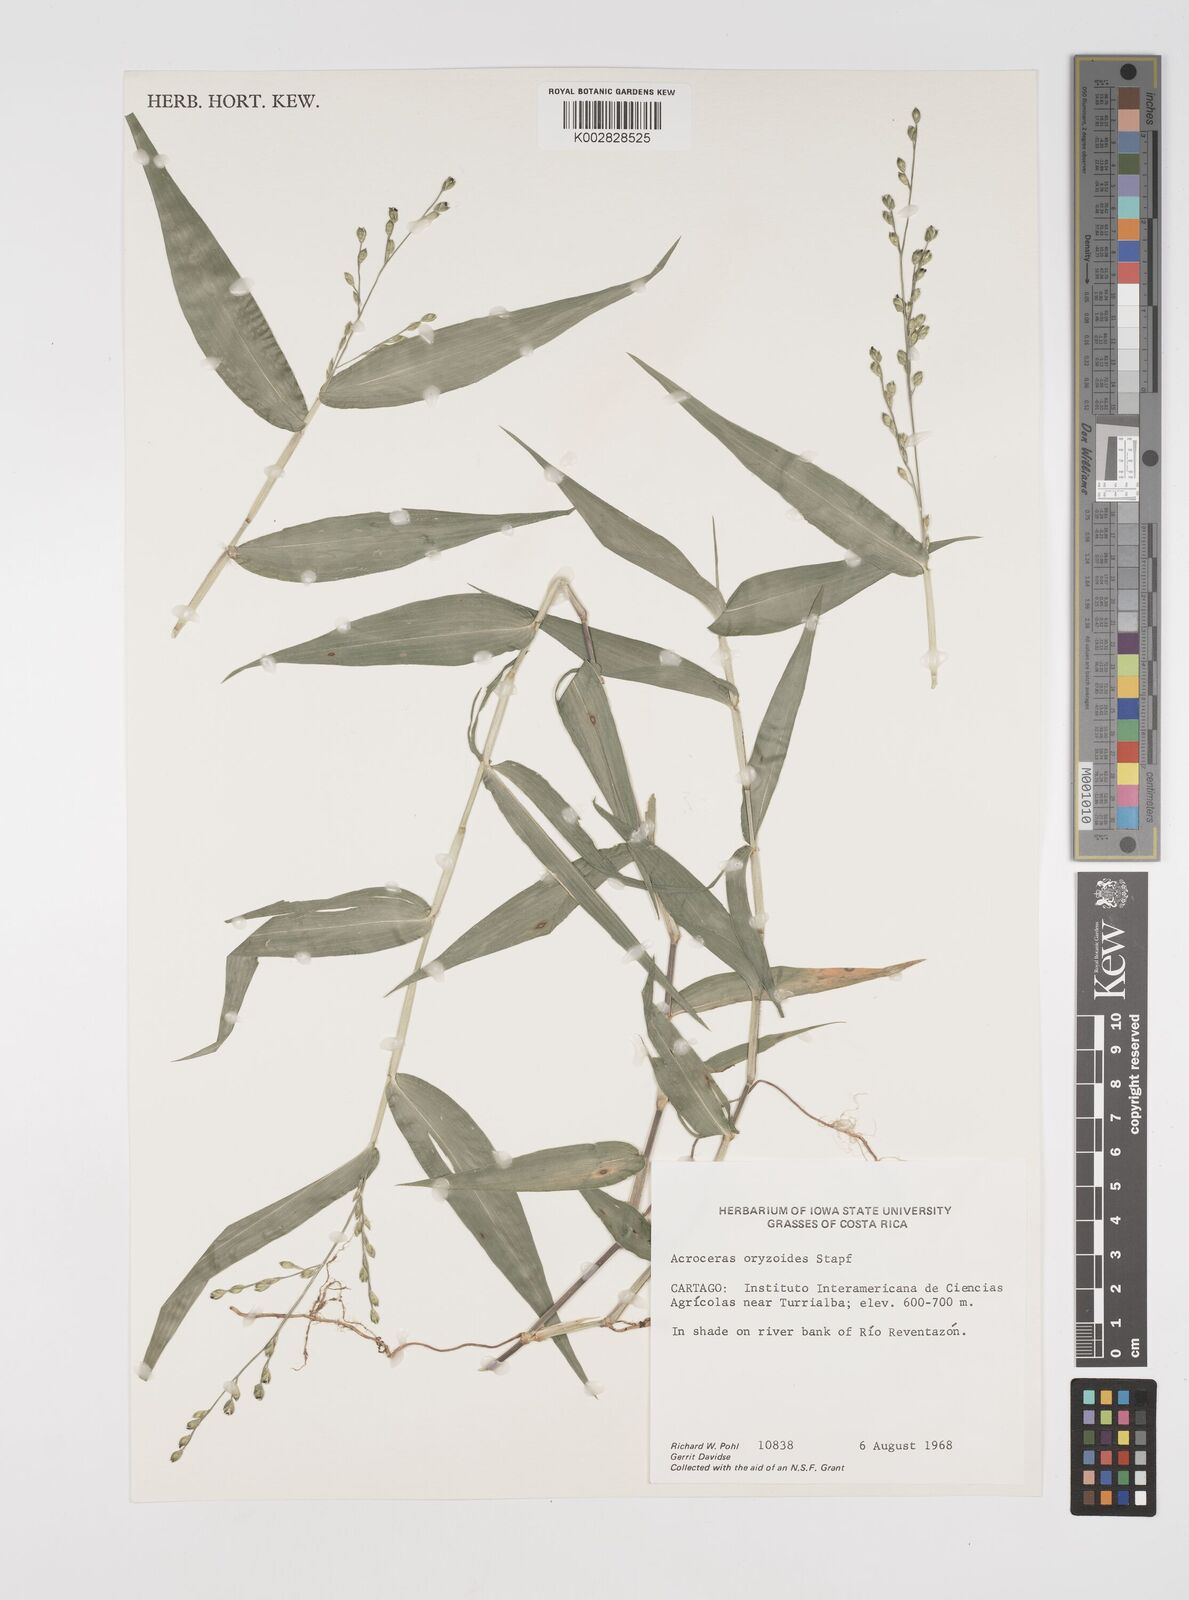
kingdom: Plantae
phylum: Tracheophyta
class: Liliopsida
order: Poales
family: Poaceae
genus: Acroceras
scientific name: Acroceras zizanioides
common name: Oat grass
